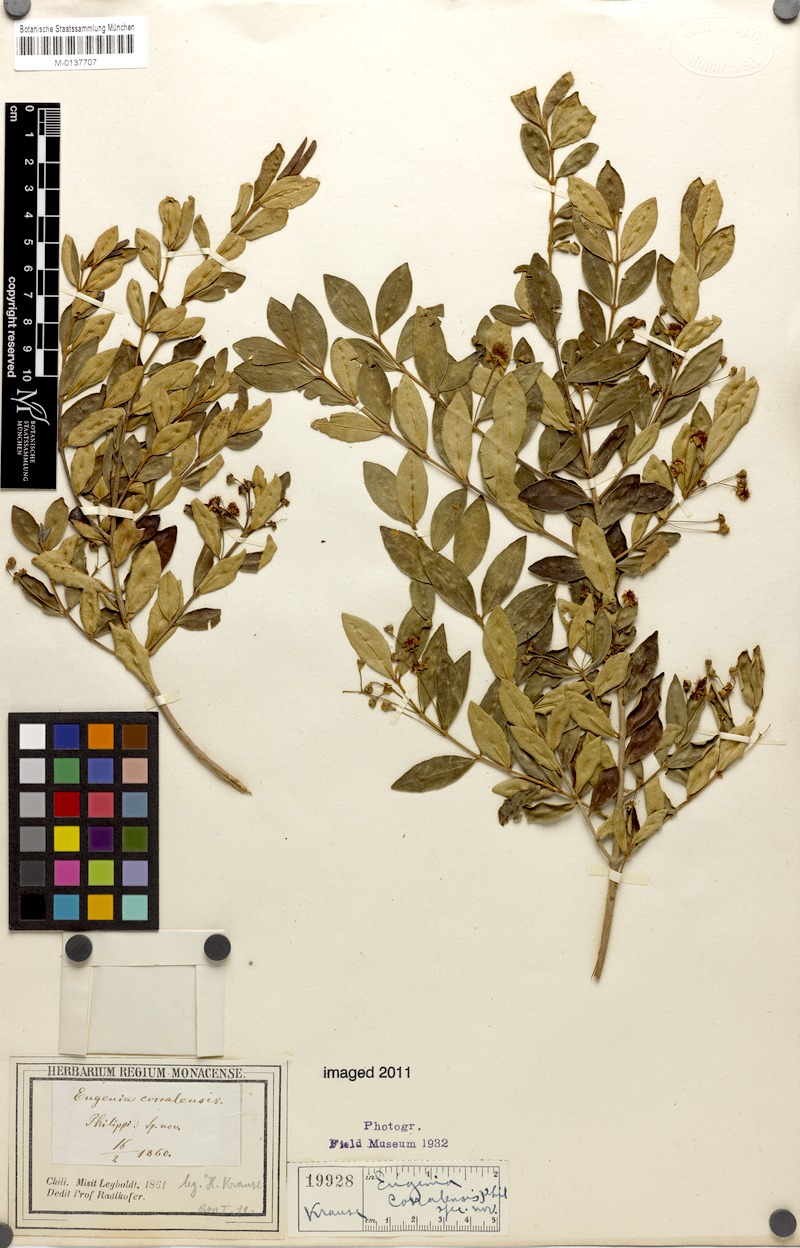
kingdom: Plantae
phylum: Tracheophyta
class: Magnoliopsida
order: Myrtales
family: Myrtaceae
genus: Myrceugenia
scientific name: Myrceugenia exsucca
